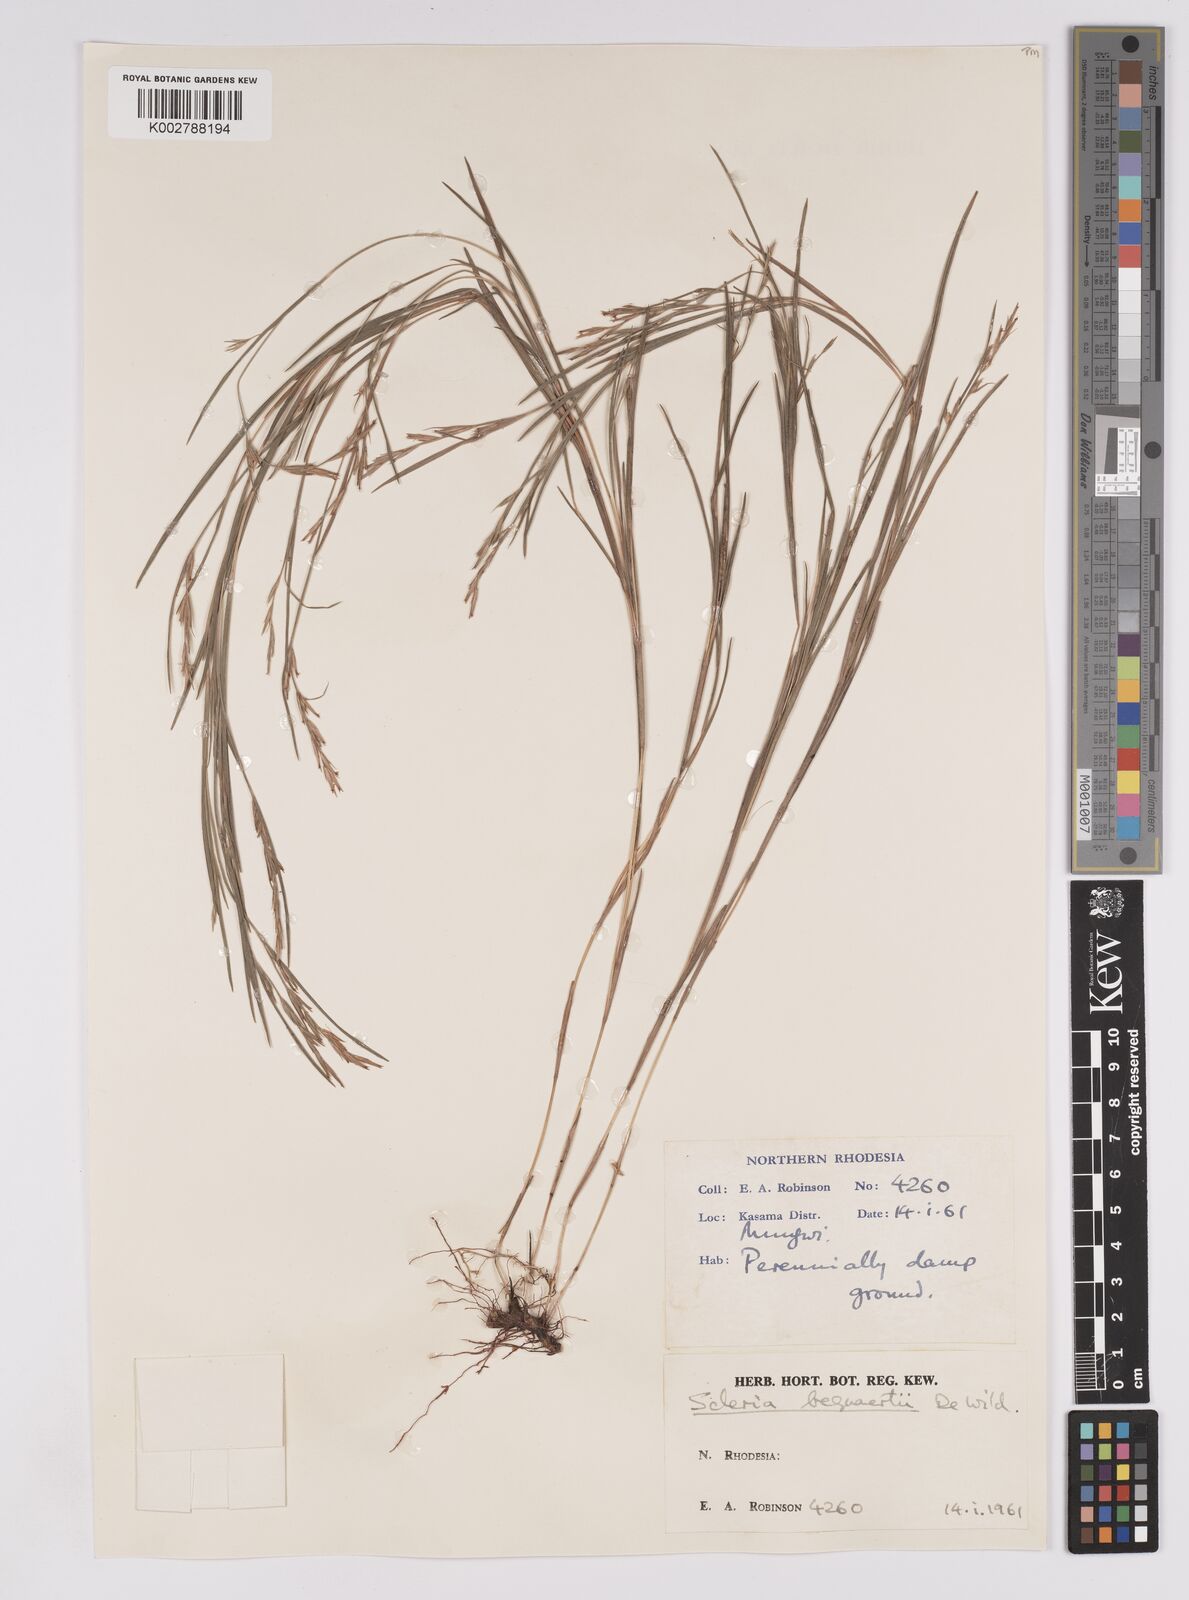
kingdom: Plantae
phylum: Tracheophyta
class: Liliopsida
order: Poales
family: Cyperaceae
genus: Scleria
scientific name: Scleria bequaertii
